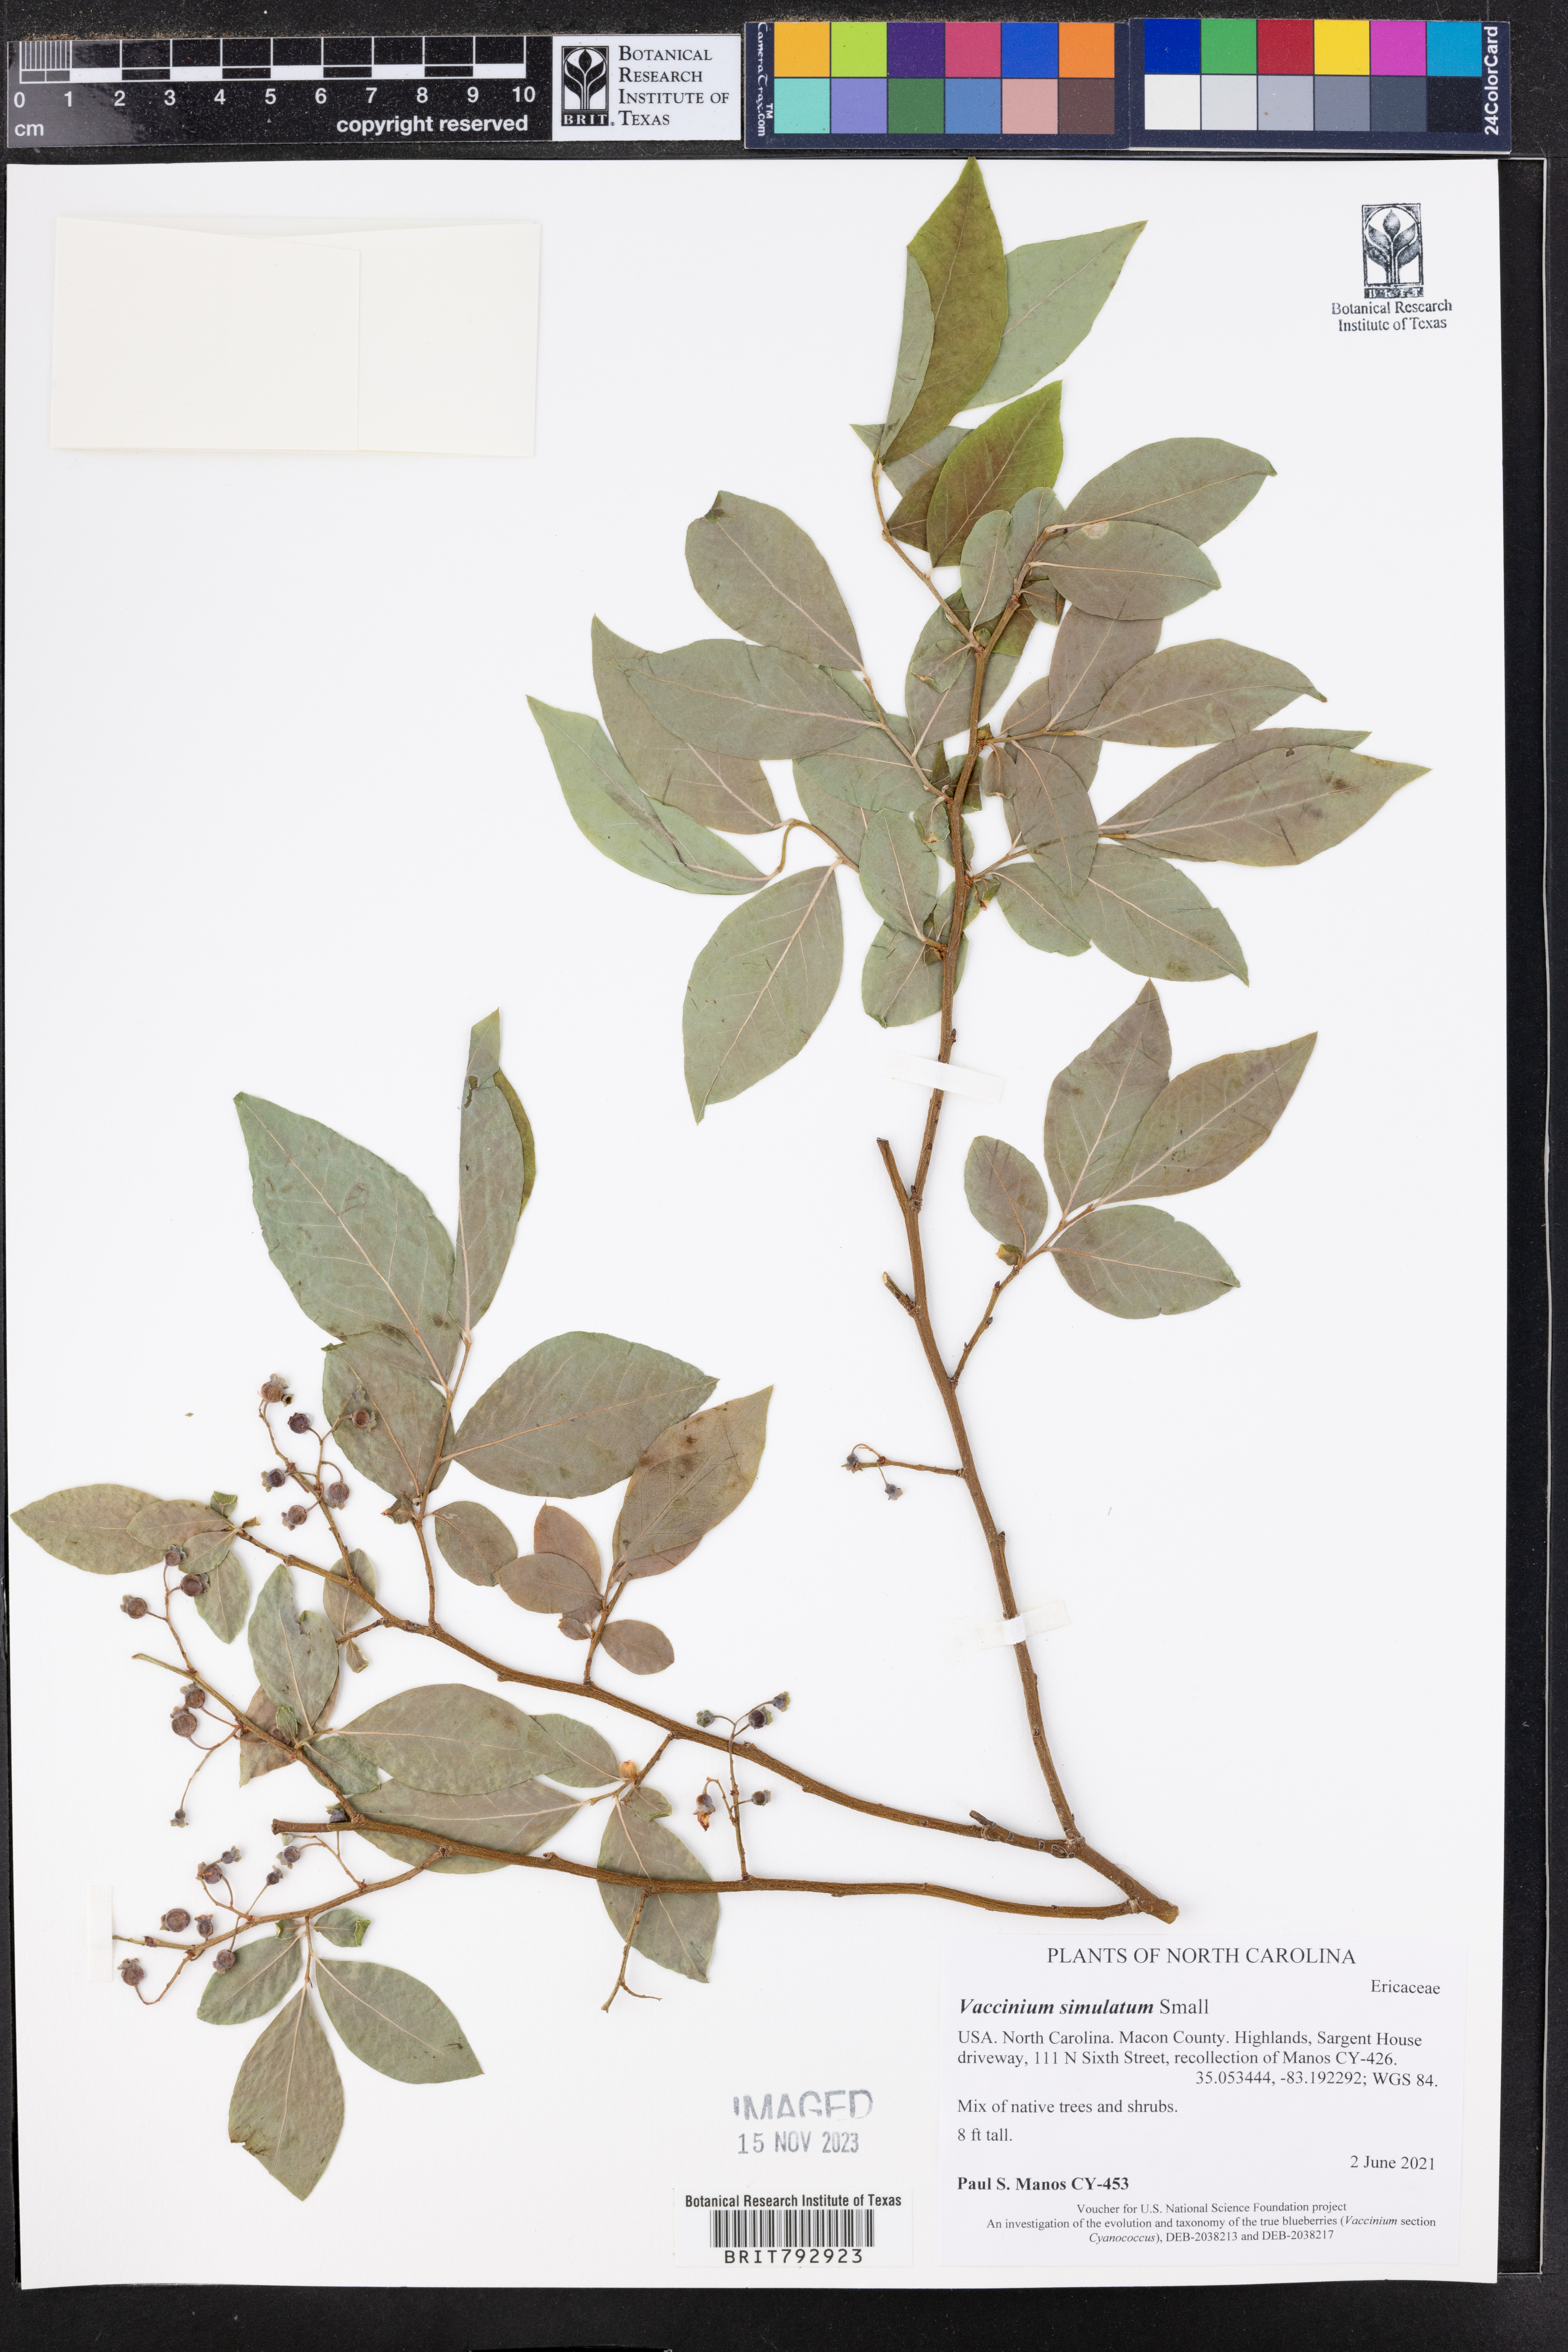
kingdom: Plantae
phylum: Tracheophyta
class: Magnoliopsida
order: Ericales
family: Ericaceae
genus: Vaccinium
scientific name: Vaccinium corymbosum
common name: Blueberry
